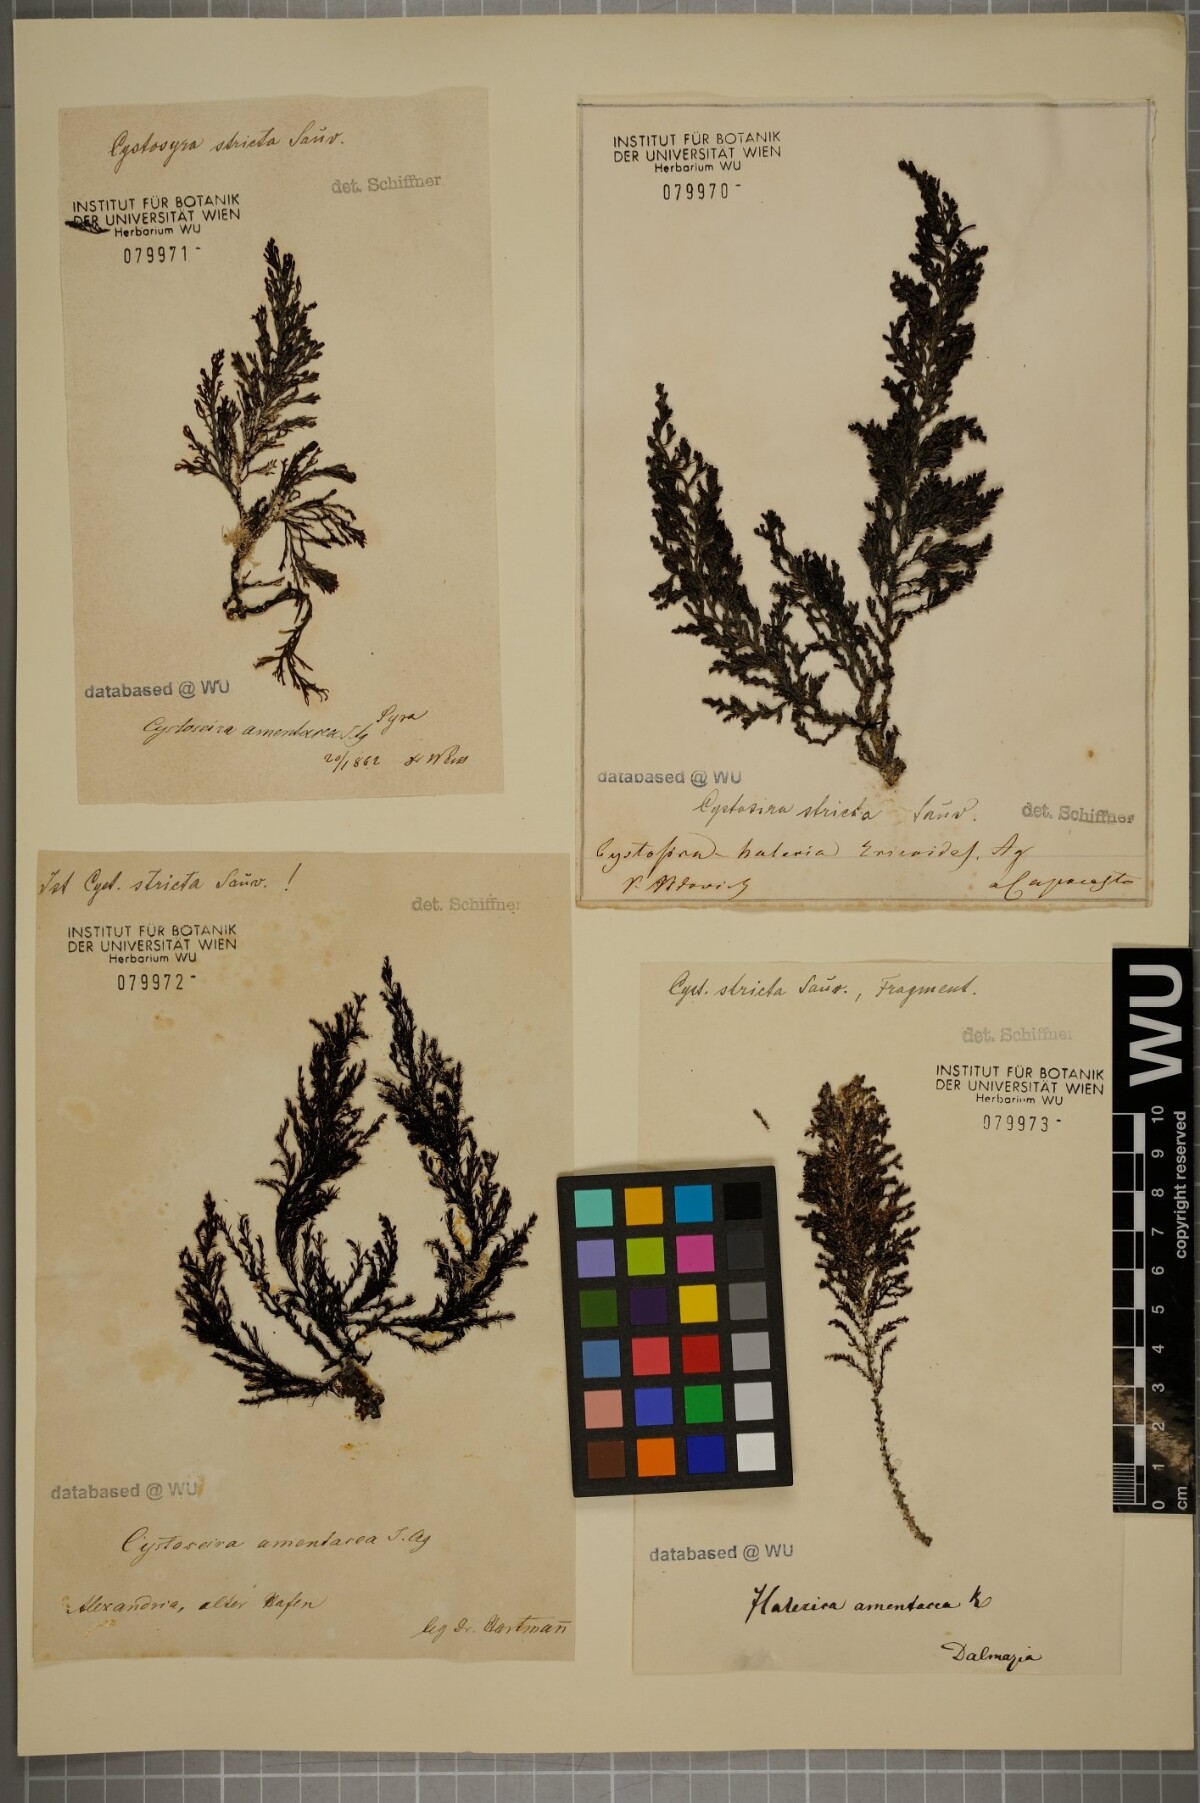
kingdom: Chromista
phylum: Ochrophyta
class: Phaeophyceae
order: Fucales
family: Sargassaceae
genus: Cystoseira
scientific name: Cystoseira Ericaria amentacea
